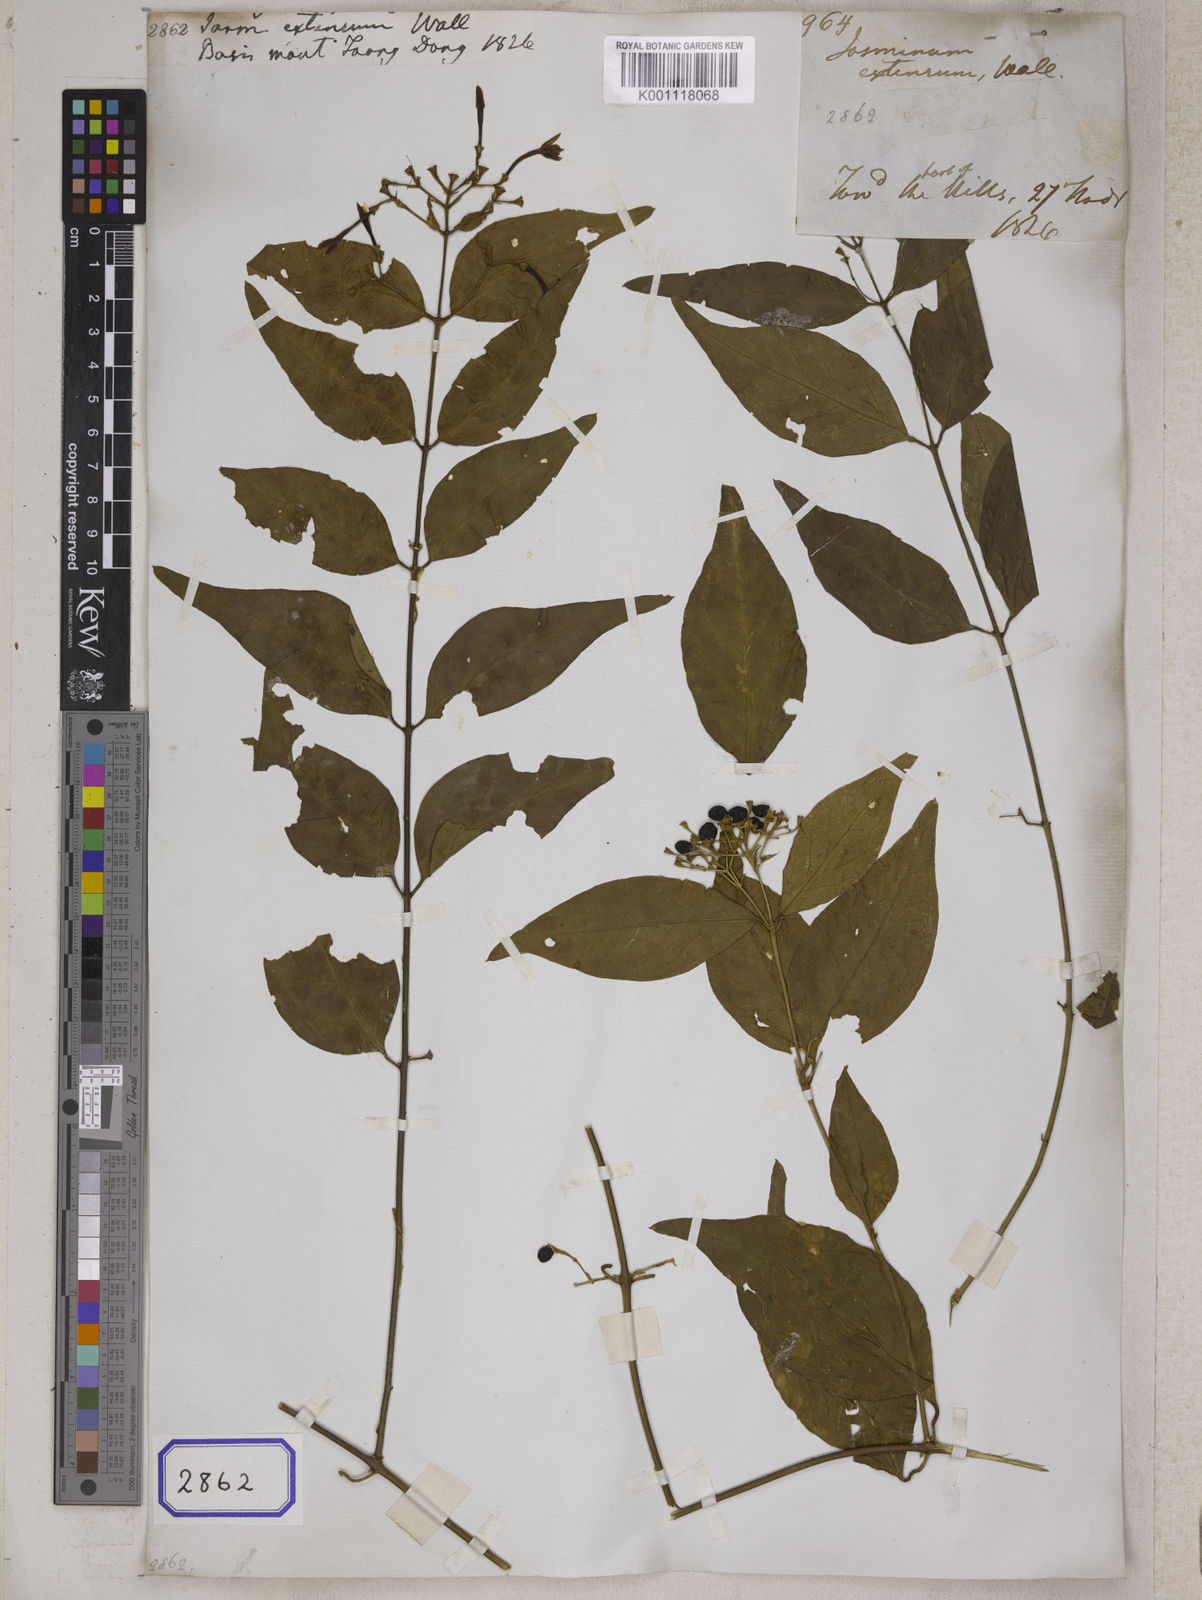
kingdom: Plantae
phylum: Tracheophyta
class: Magnoliopsida
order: Lamiales
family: Oleaceae
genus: Jasminum
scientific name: Jasminum
